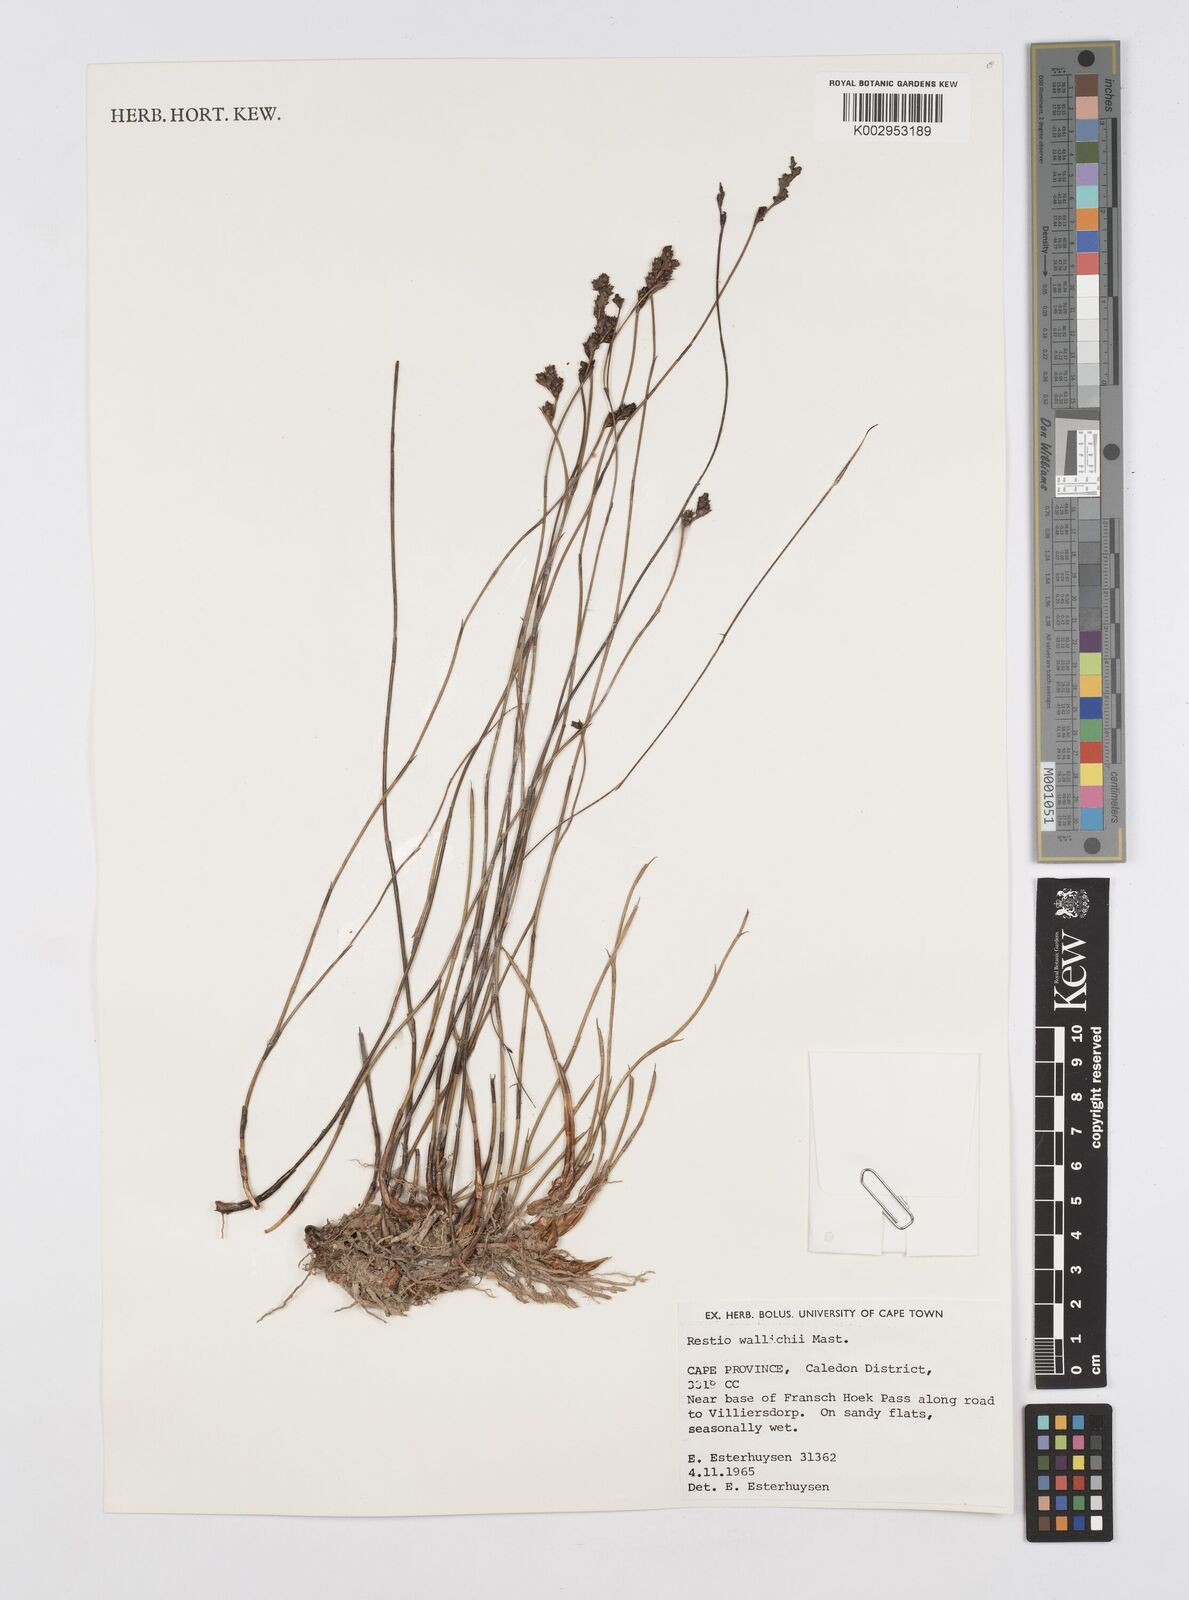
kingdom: Plantae
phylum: Tracheophyta
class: Liliopsida
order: Poales
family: Restionaceae
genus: Restio
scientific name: Restio wallichii
